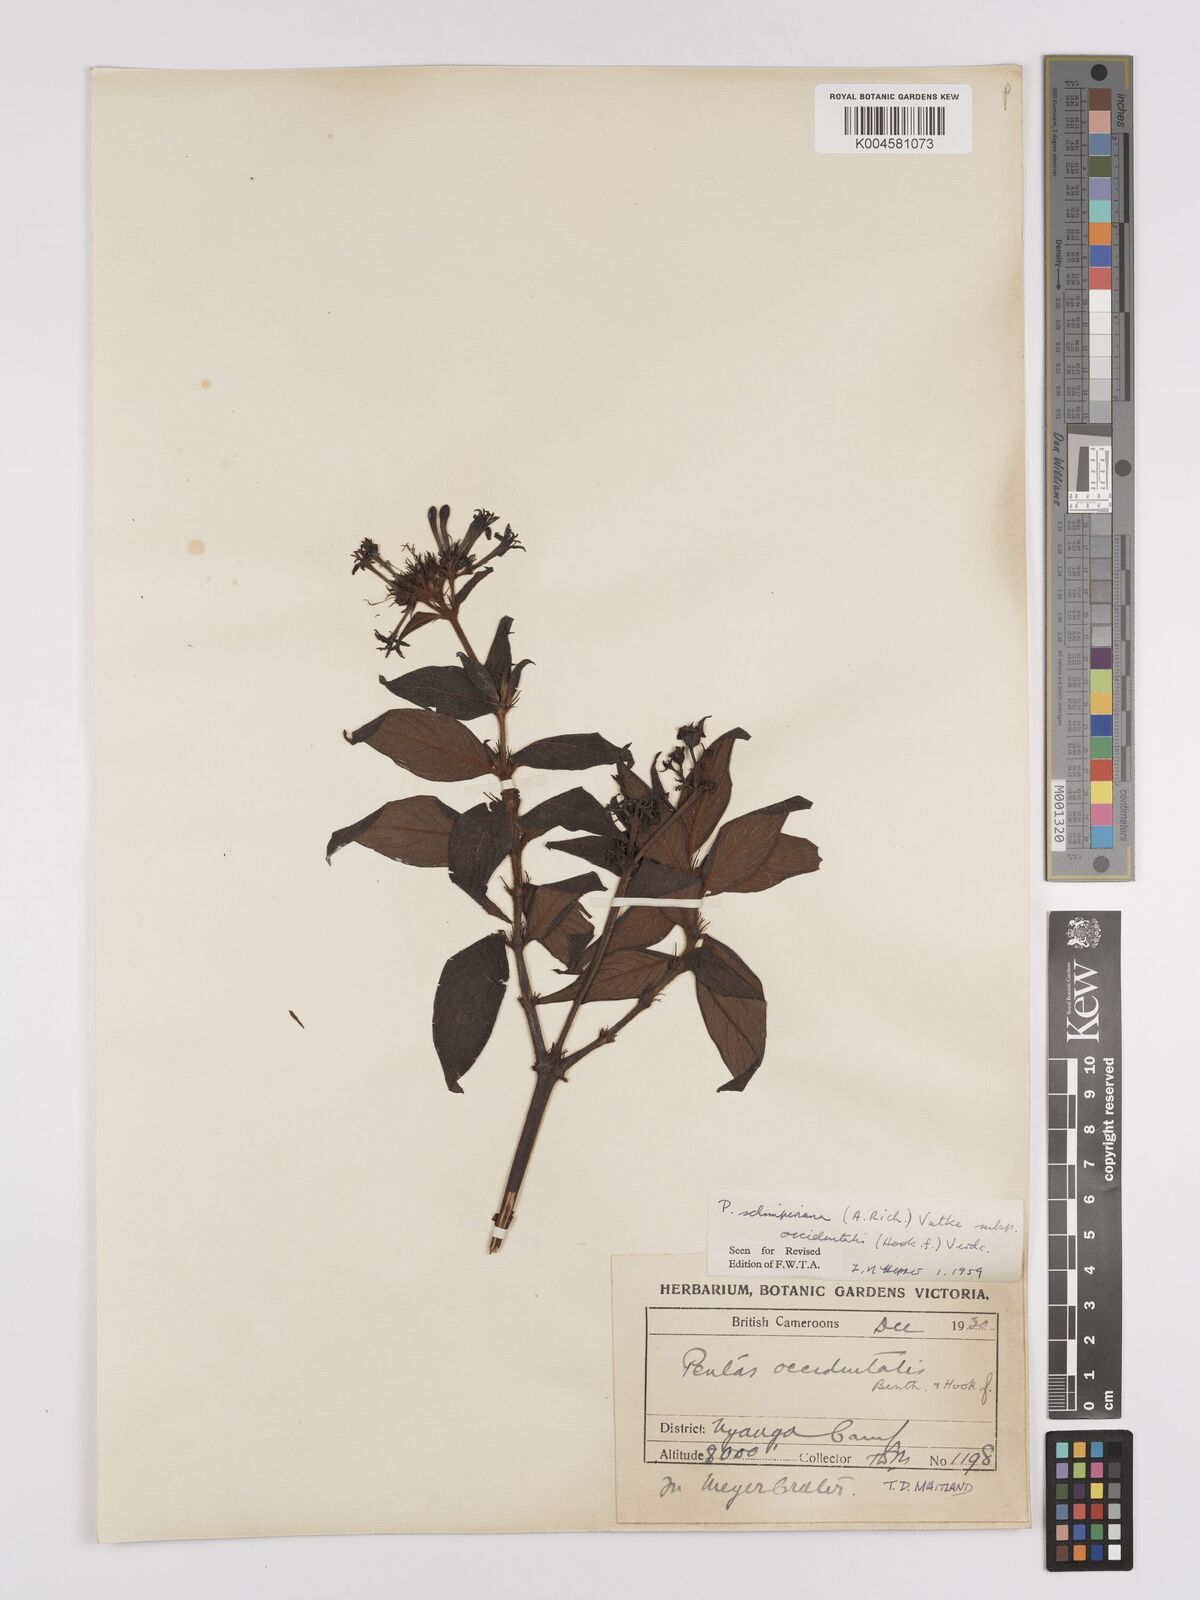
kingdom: Plantae
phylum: Tracheophyta
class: Magnoliopsida
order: Gentianales
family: Rubiaceae
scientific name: Rubiaceae
